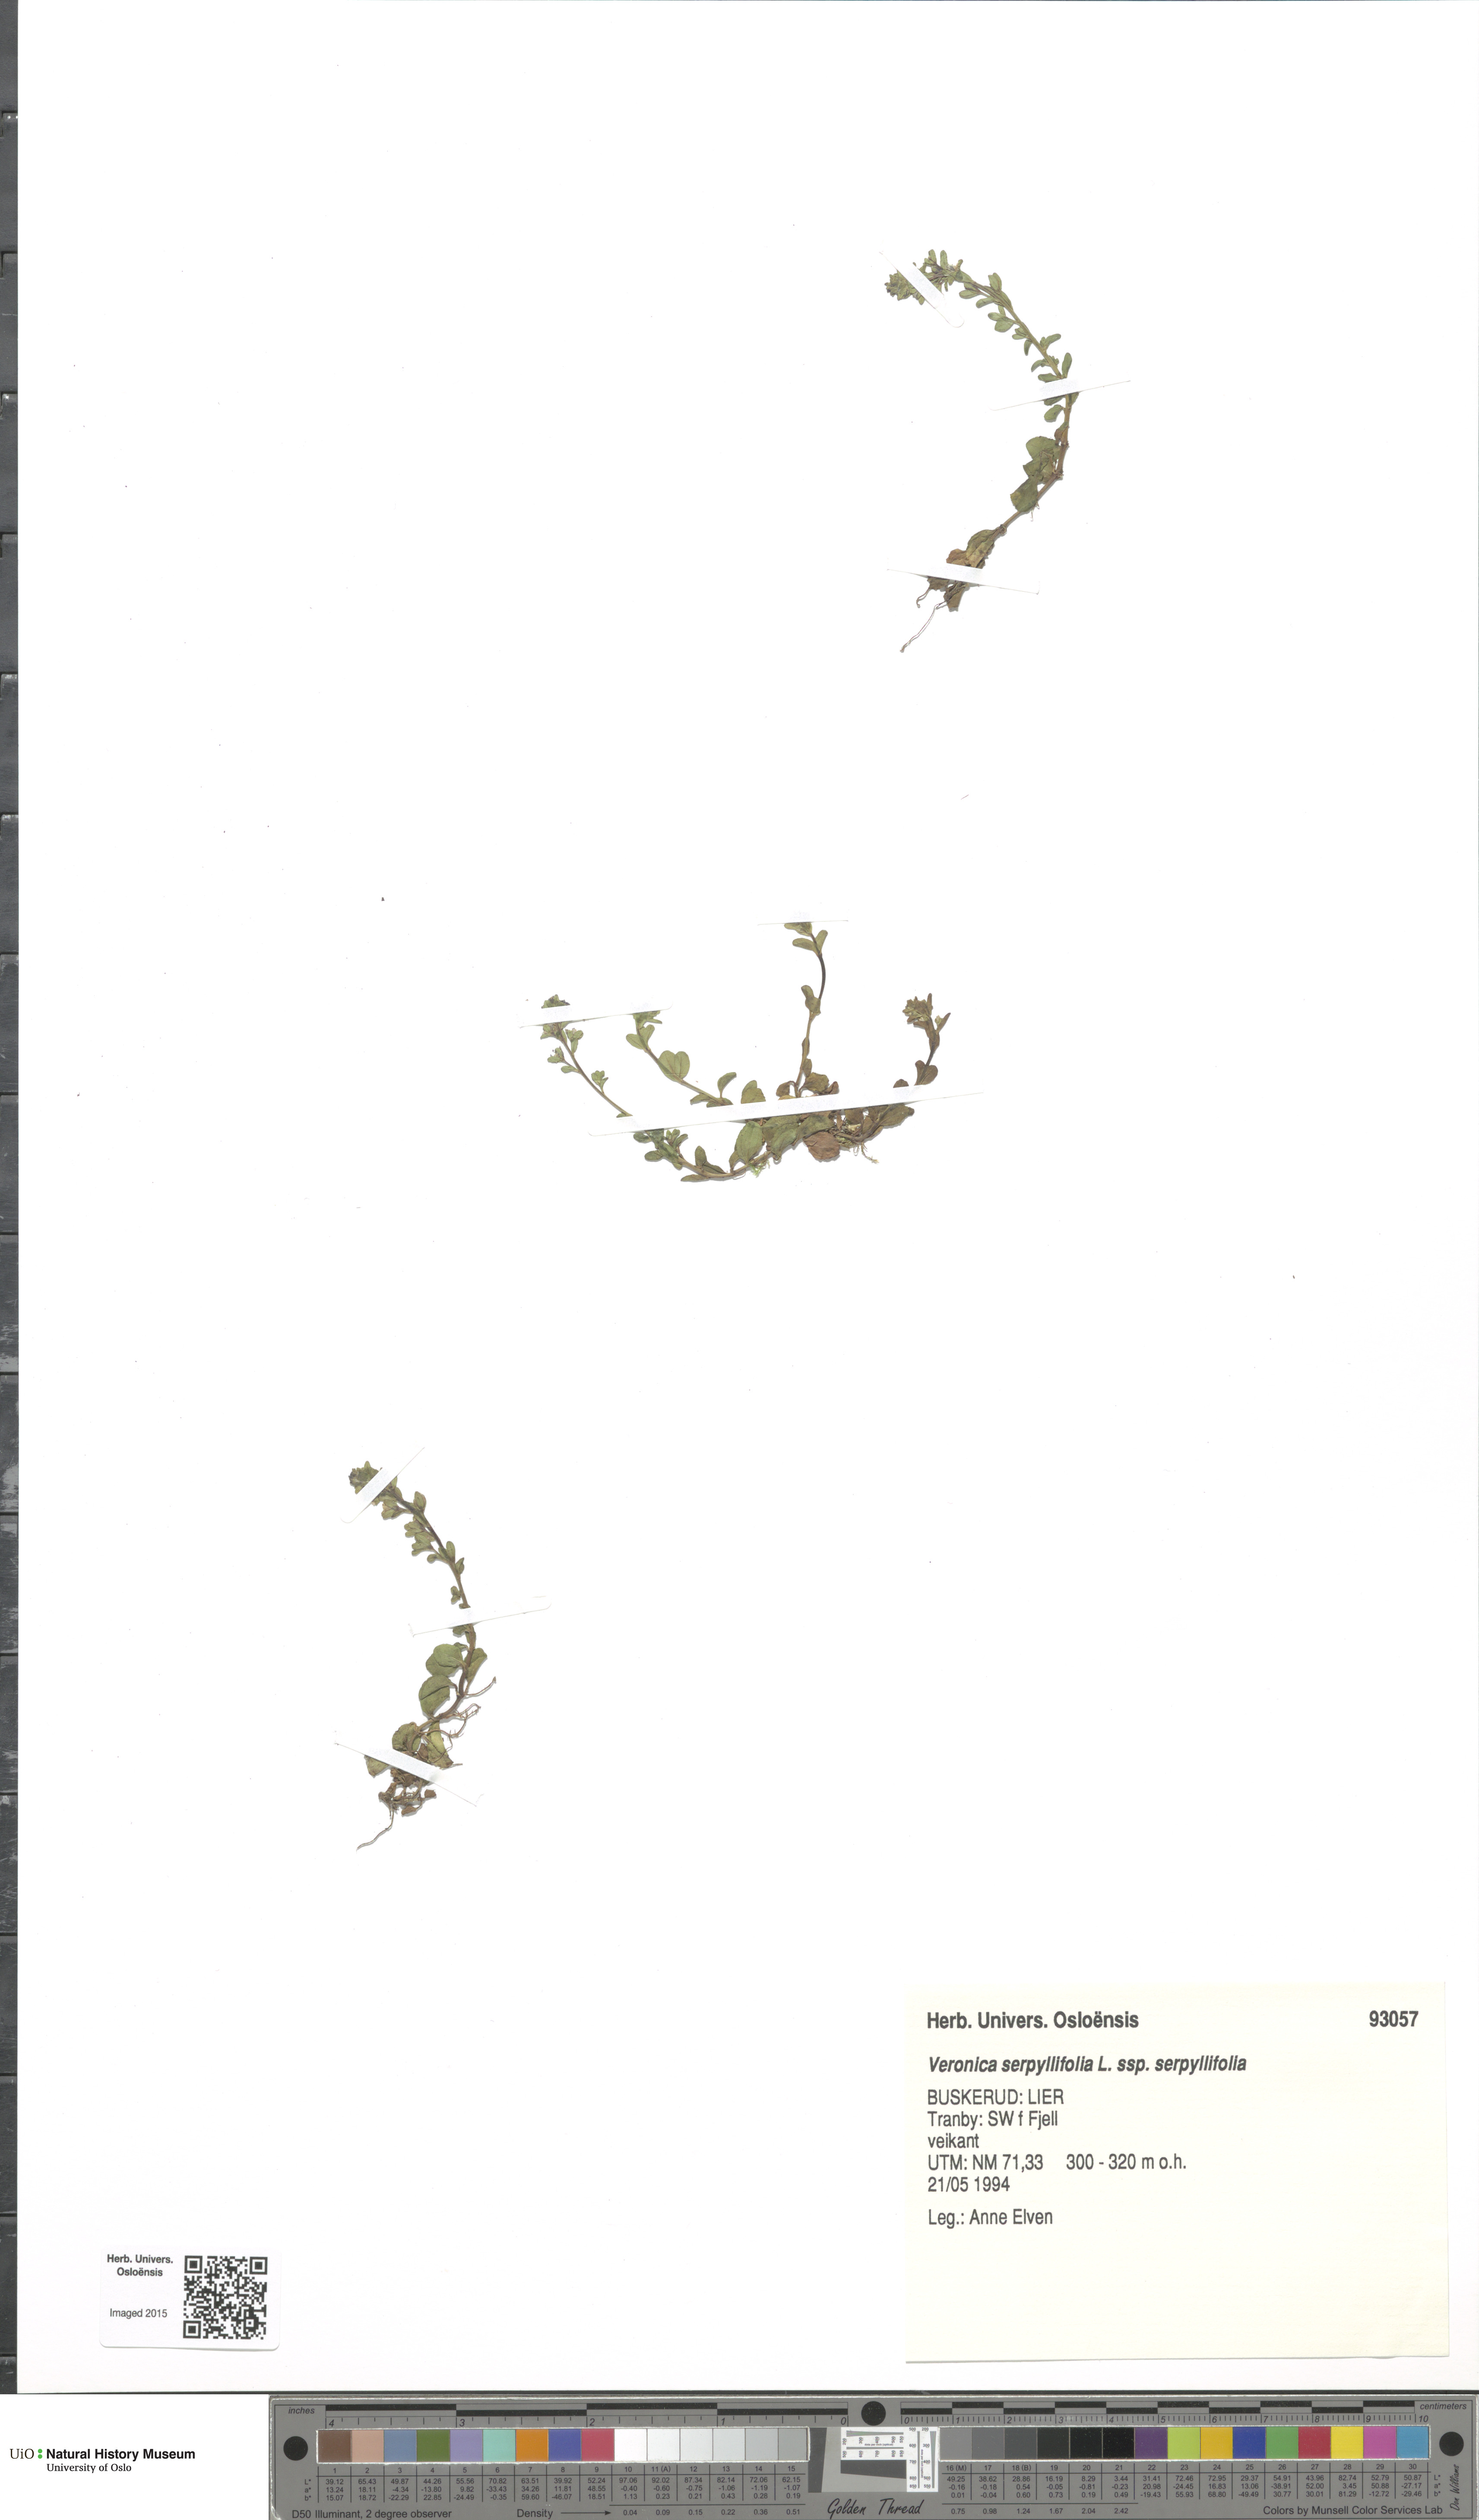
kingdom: Plantae
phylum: Tracheophyta
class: Magnoliopsida
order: Lamiales
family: Plantaginaceae
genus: Veronica
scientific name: Veronica serpyllifolia
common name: Thyme-leaved speedwell
